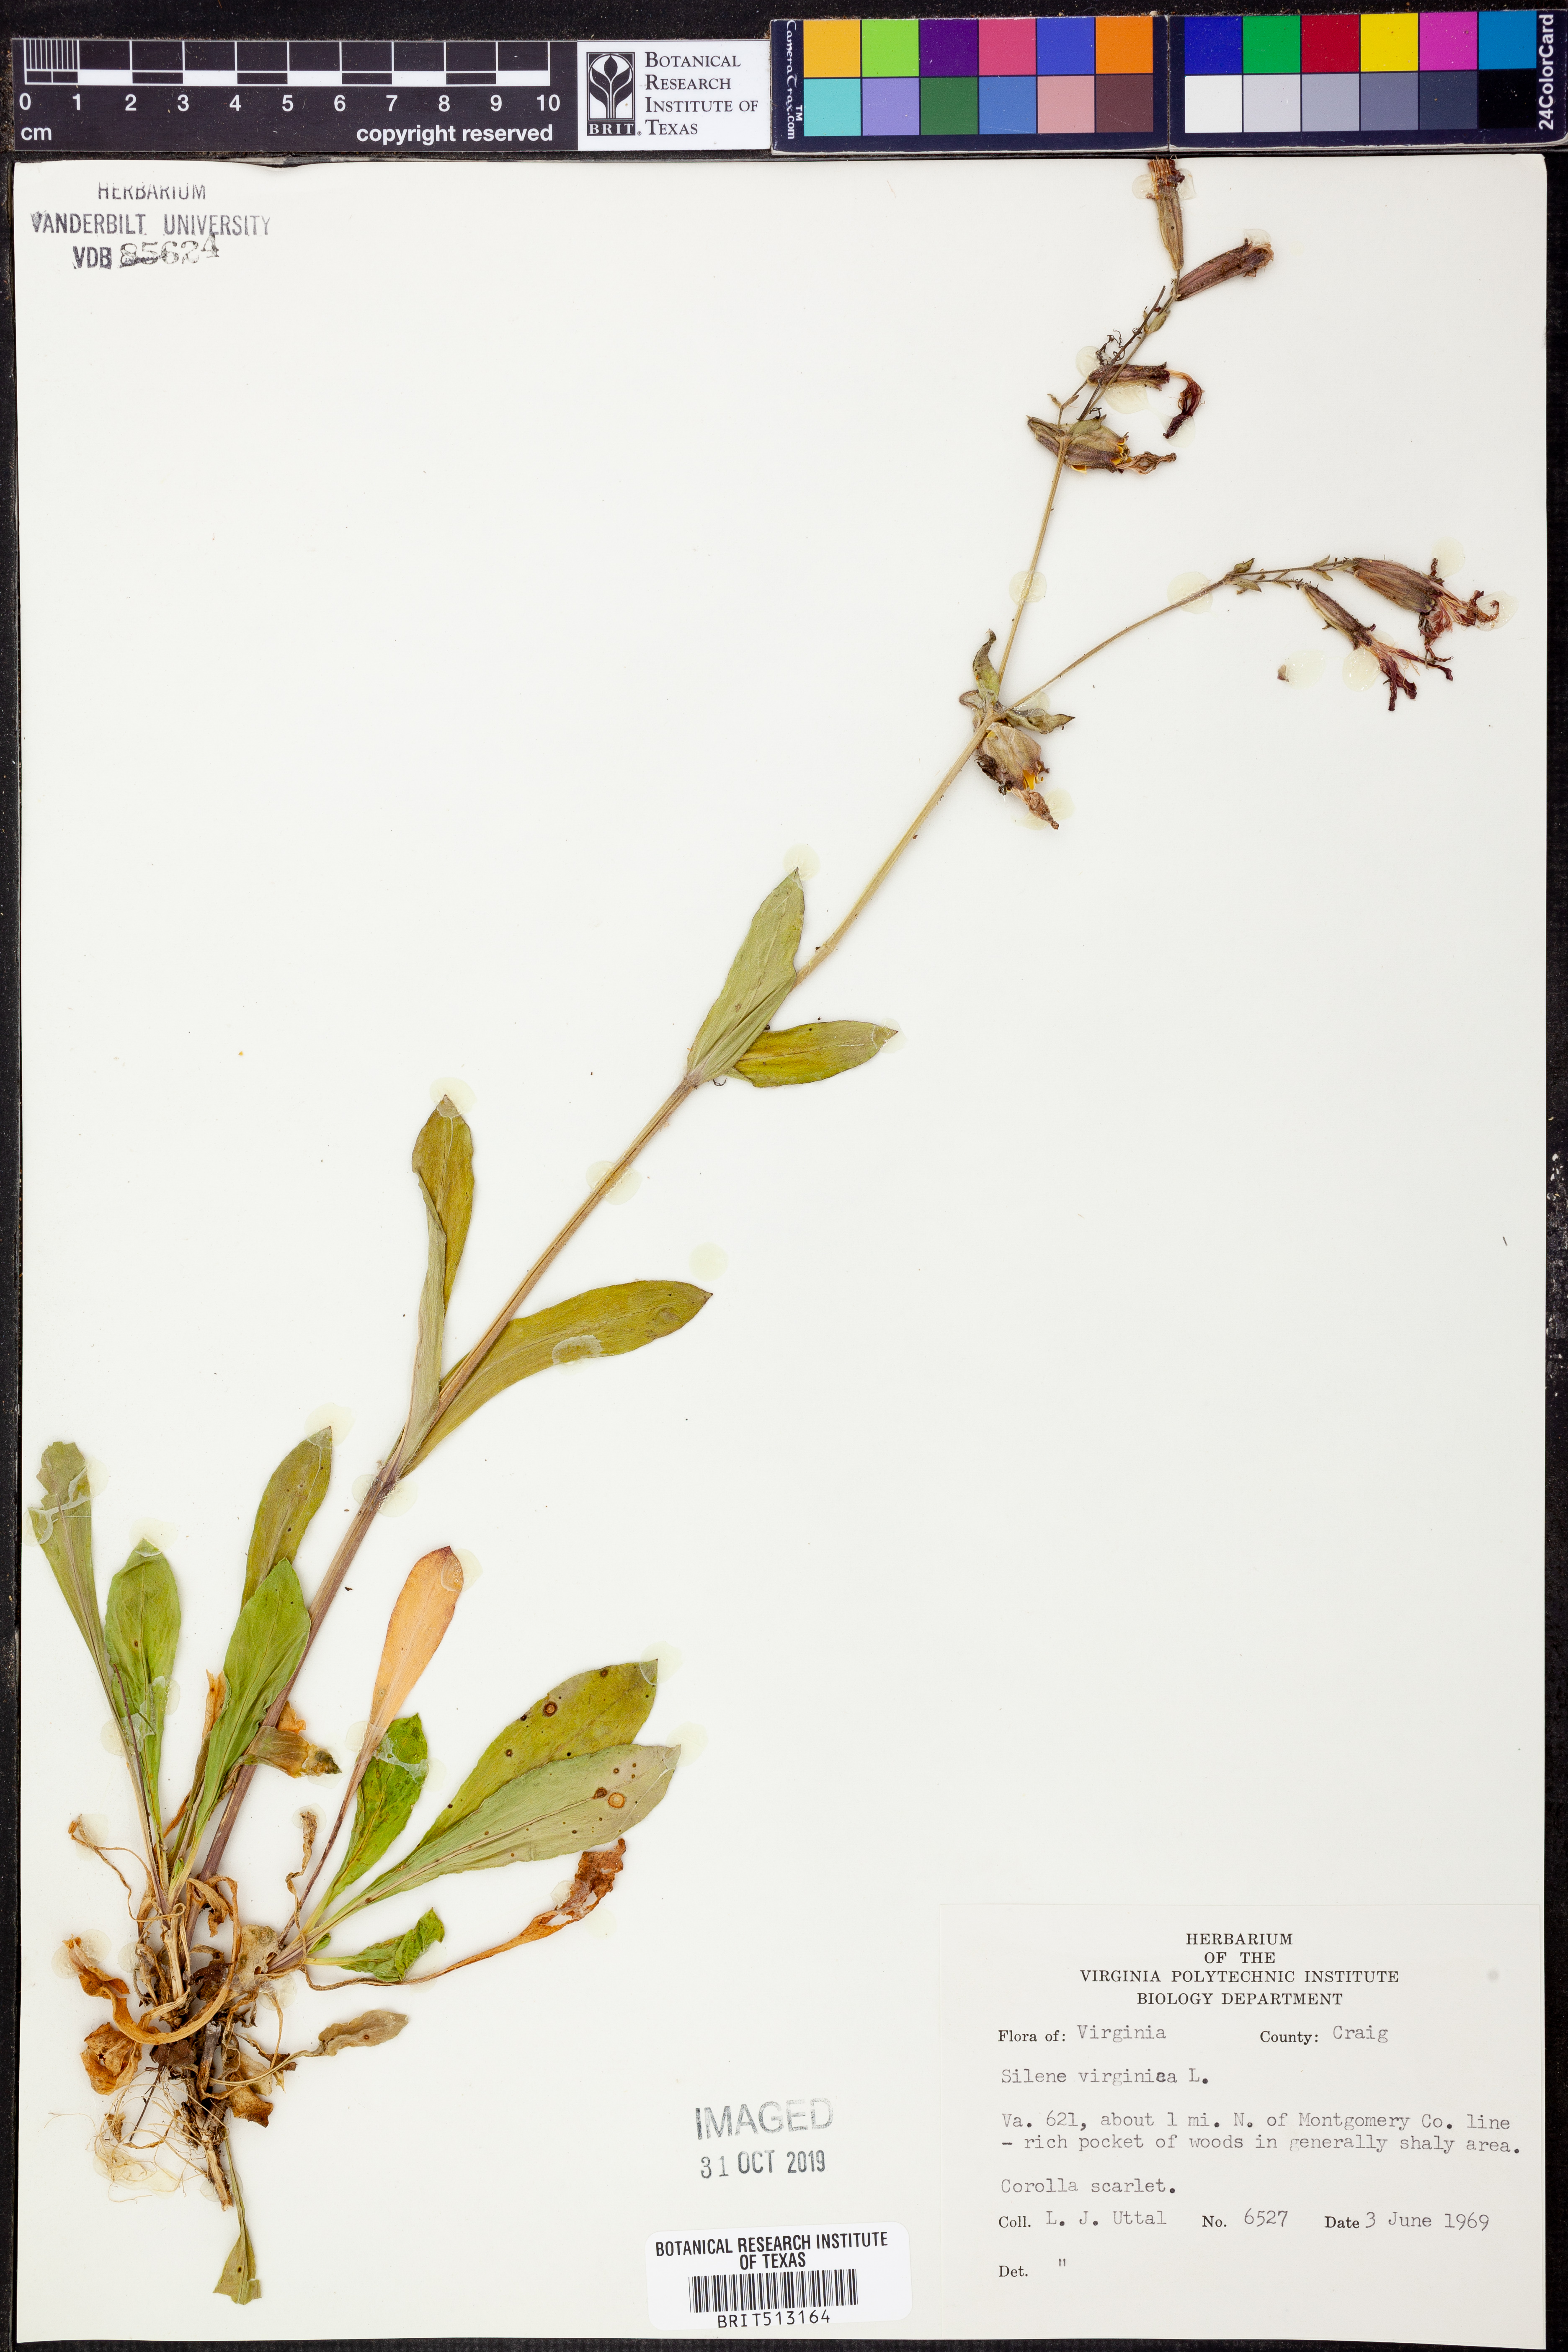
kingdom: Plantae
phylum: Tracheophyta
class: Magnoliopsida
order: Caryophyllales
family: Caryophyllaceae
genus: Silene
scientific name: Silene virginica
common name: Fire-pink
